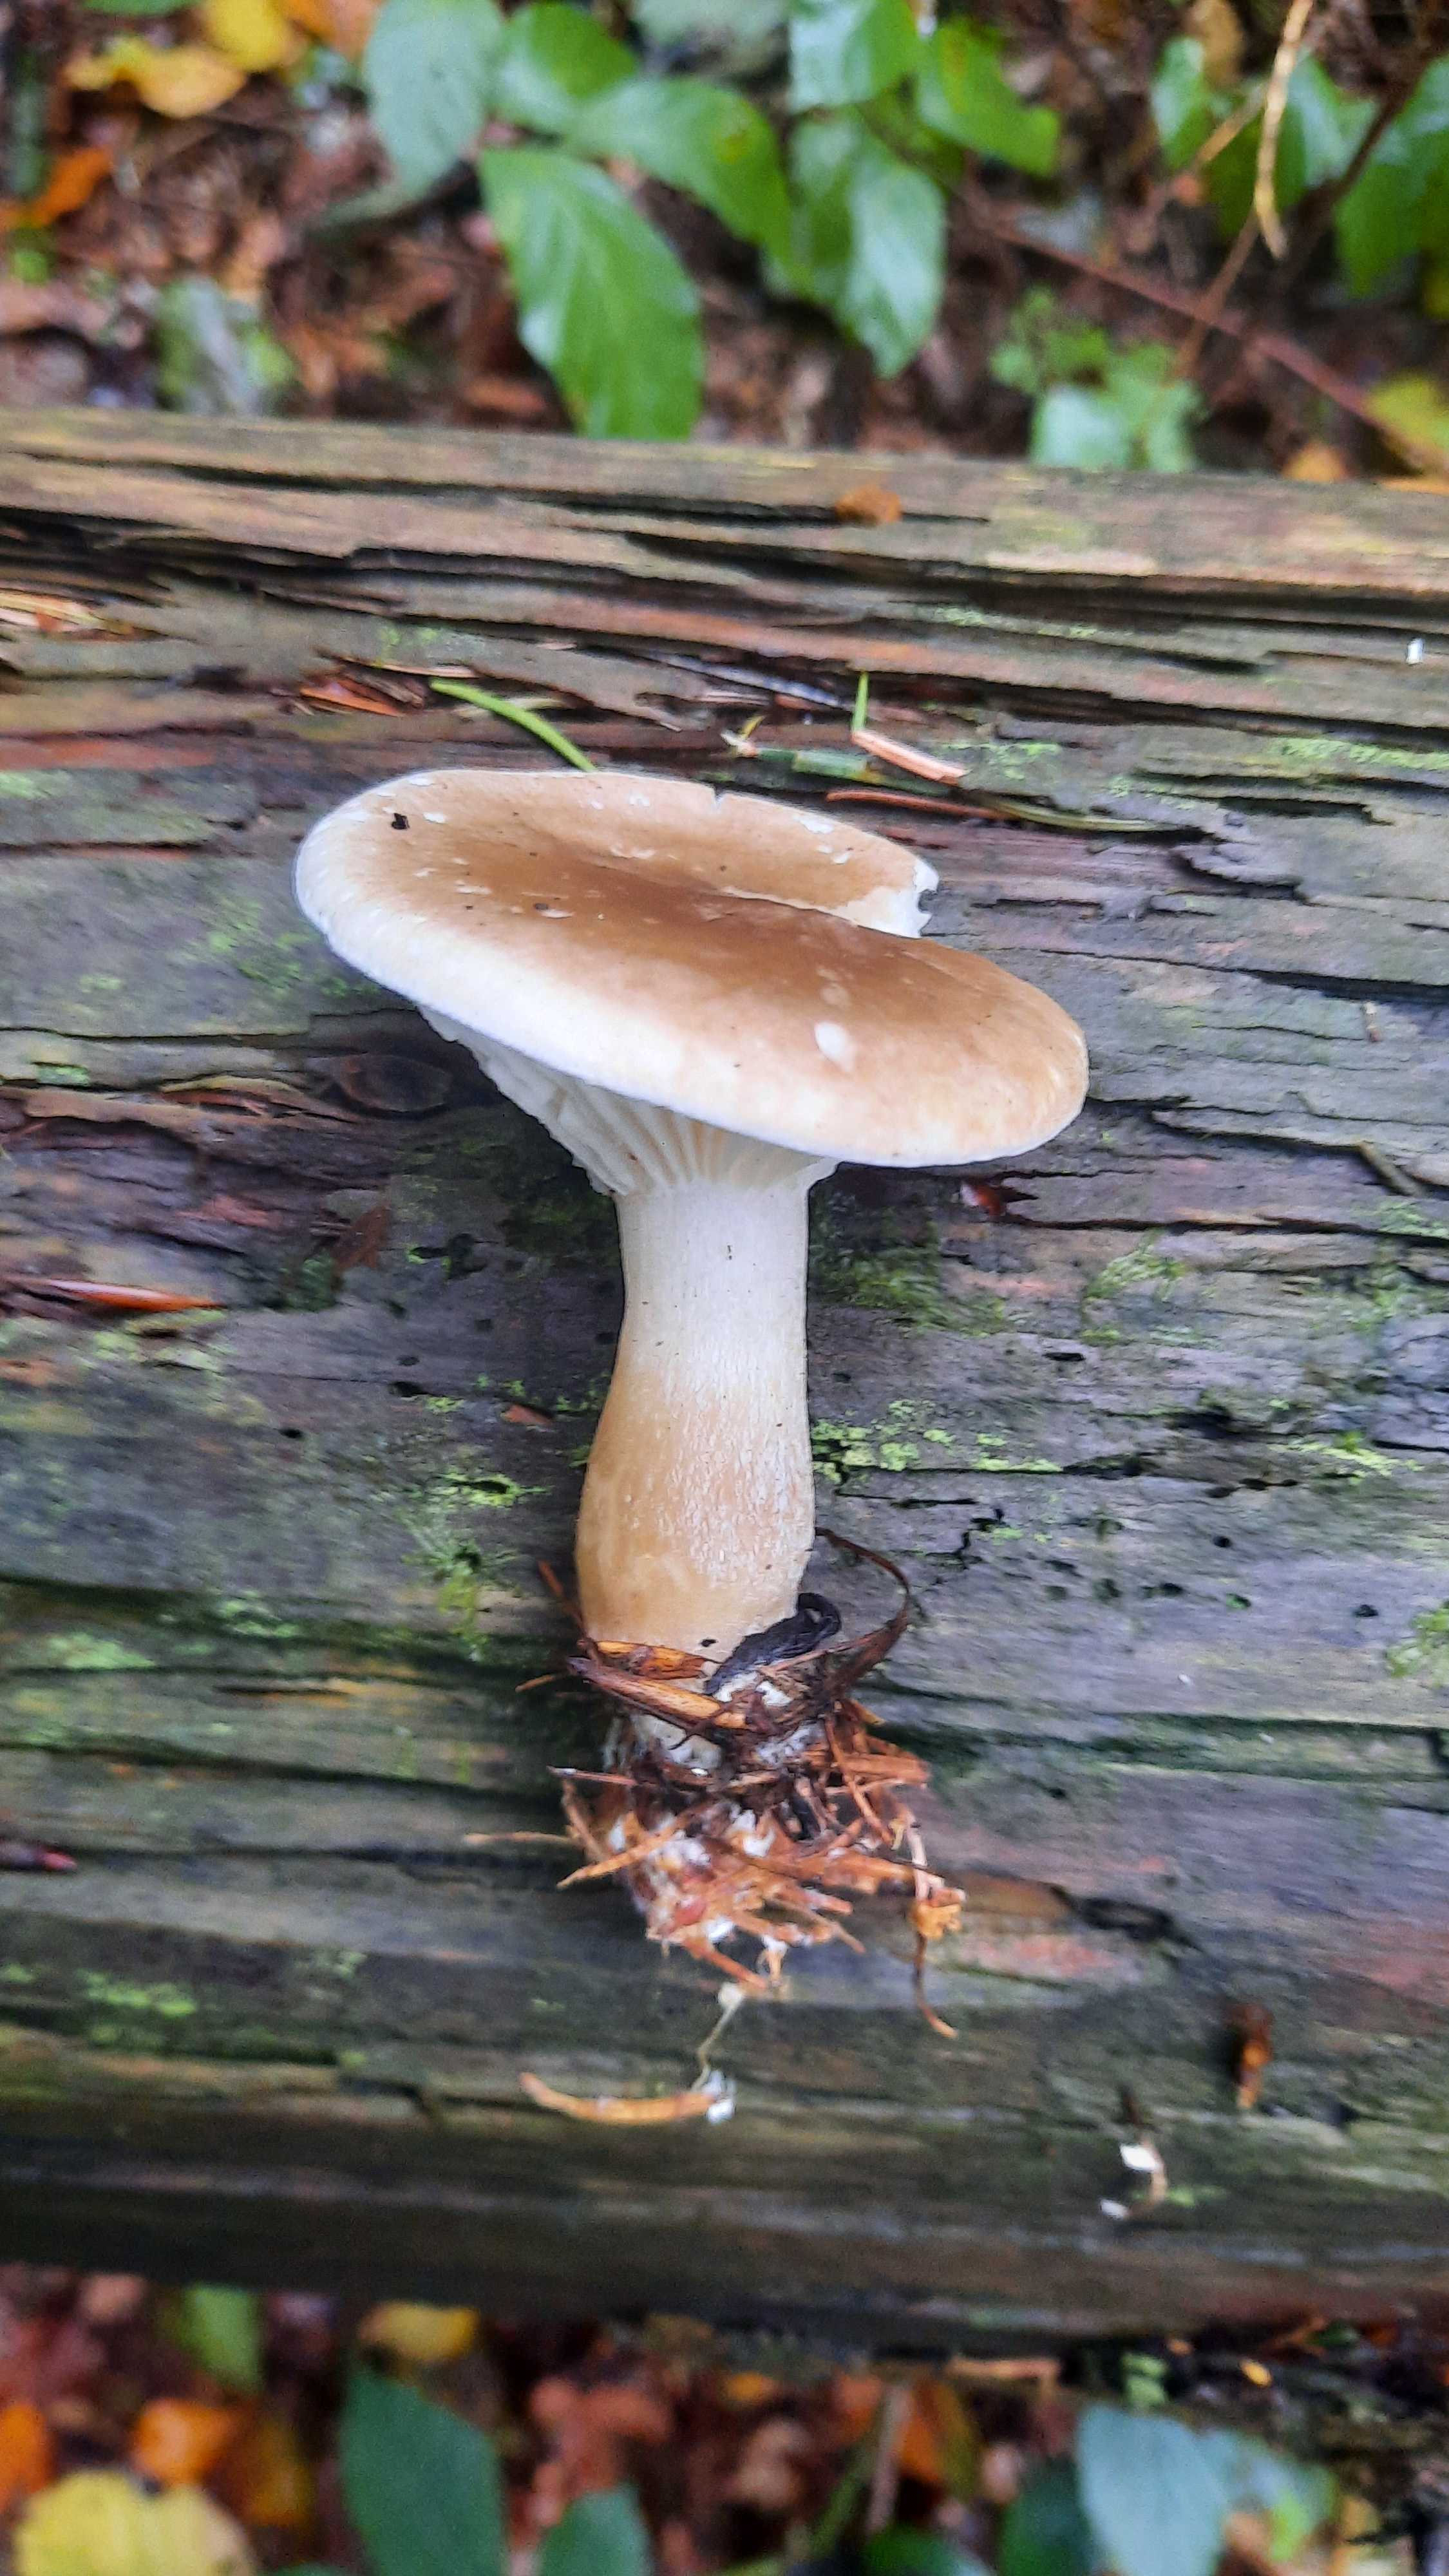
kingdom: Fungi
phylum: Basidiomycota
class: Agaricomycetes
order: Agaricales
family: Hygrophoraceae
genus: Ampulloclitocybe
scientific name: Ampulloclitocybe clavipes
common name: køllefod
